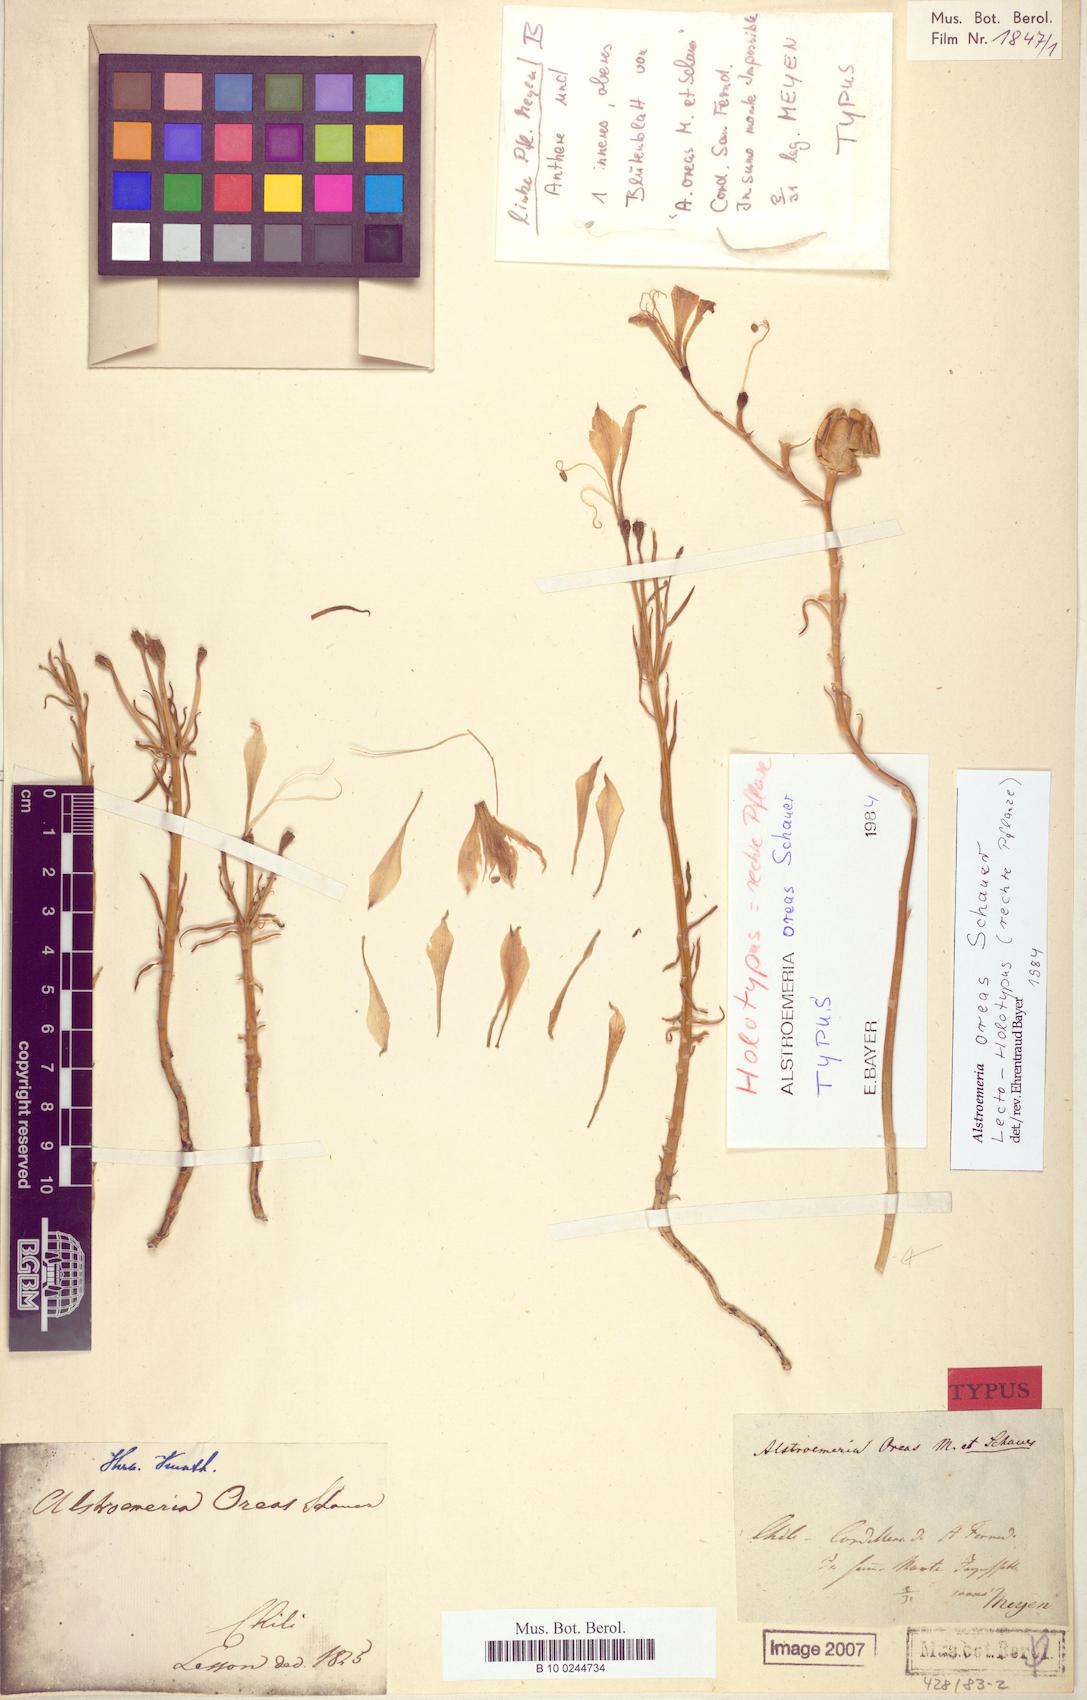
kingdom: Plantae
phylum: Tracheophyta
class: Liliopsida
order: Liliales
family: Alstroemeriaceae
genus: Alstroemeria
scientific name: Alstroemeria oreas
